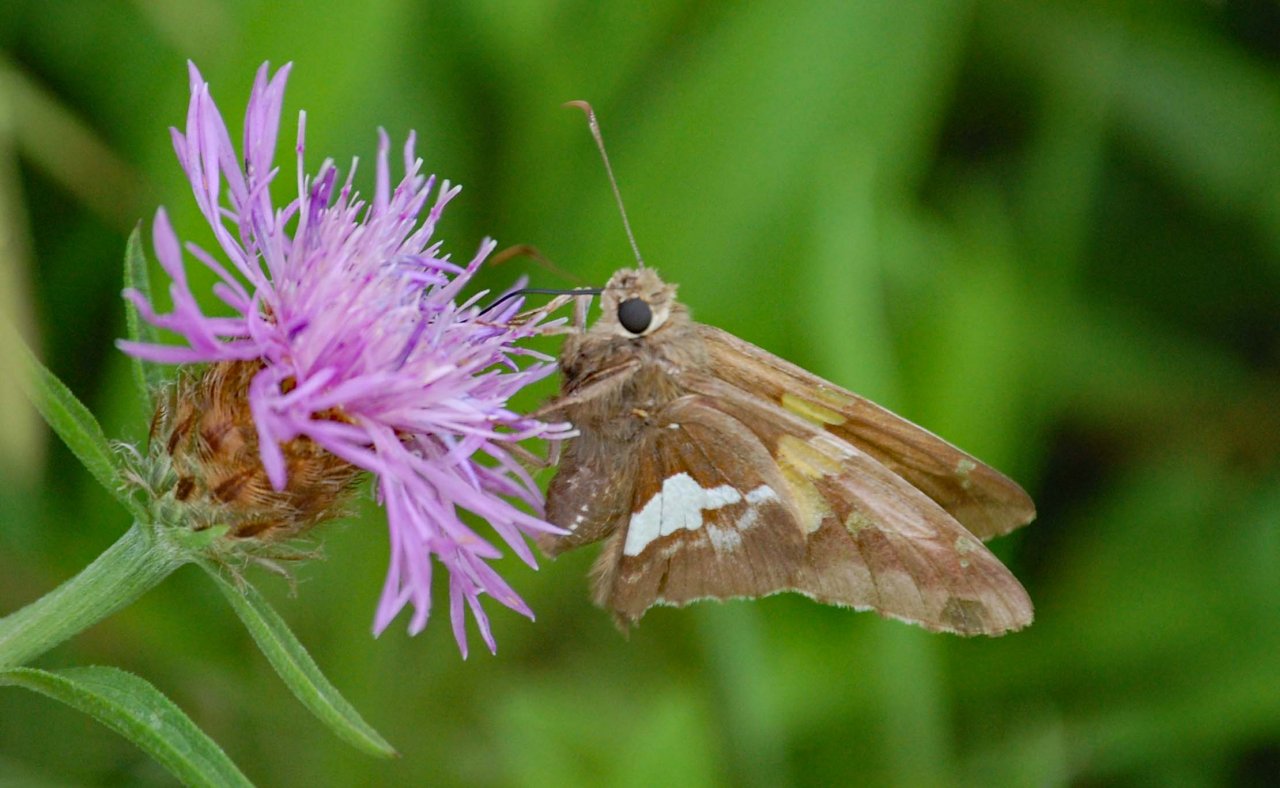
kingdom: Animalia
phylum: Arthropoda
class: Insecta
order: Lepidoptera
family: Hesperiidae
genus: Epargyreus
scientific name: Epargyreus clarus
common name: Silver-spotted Skipper
